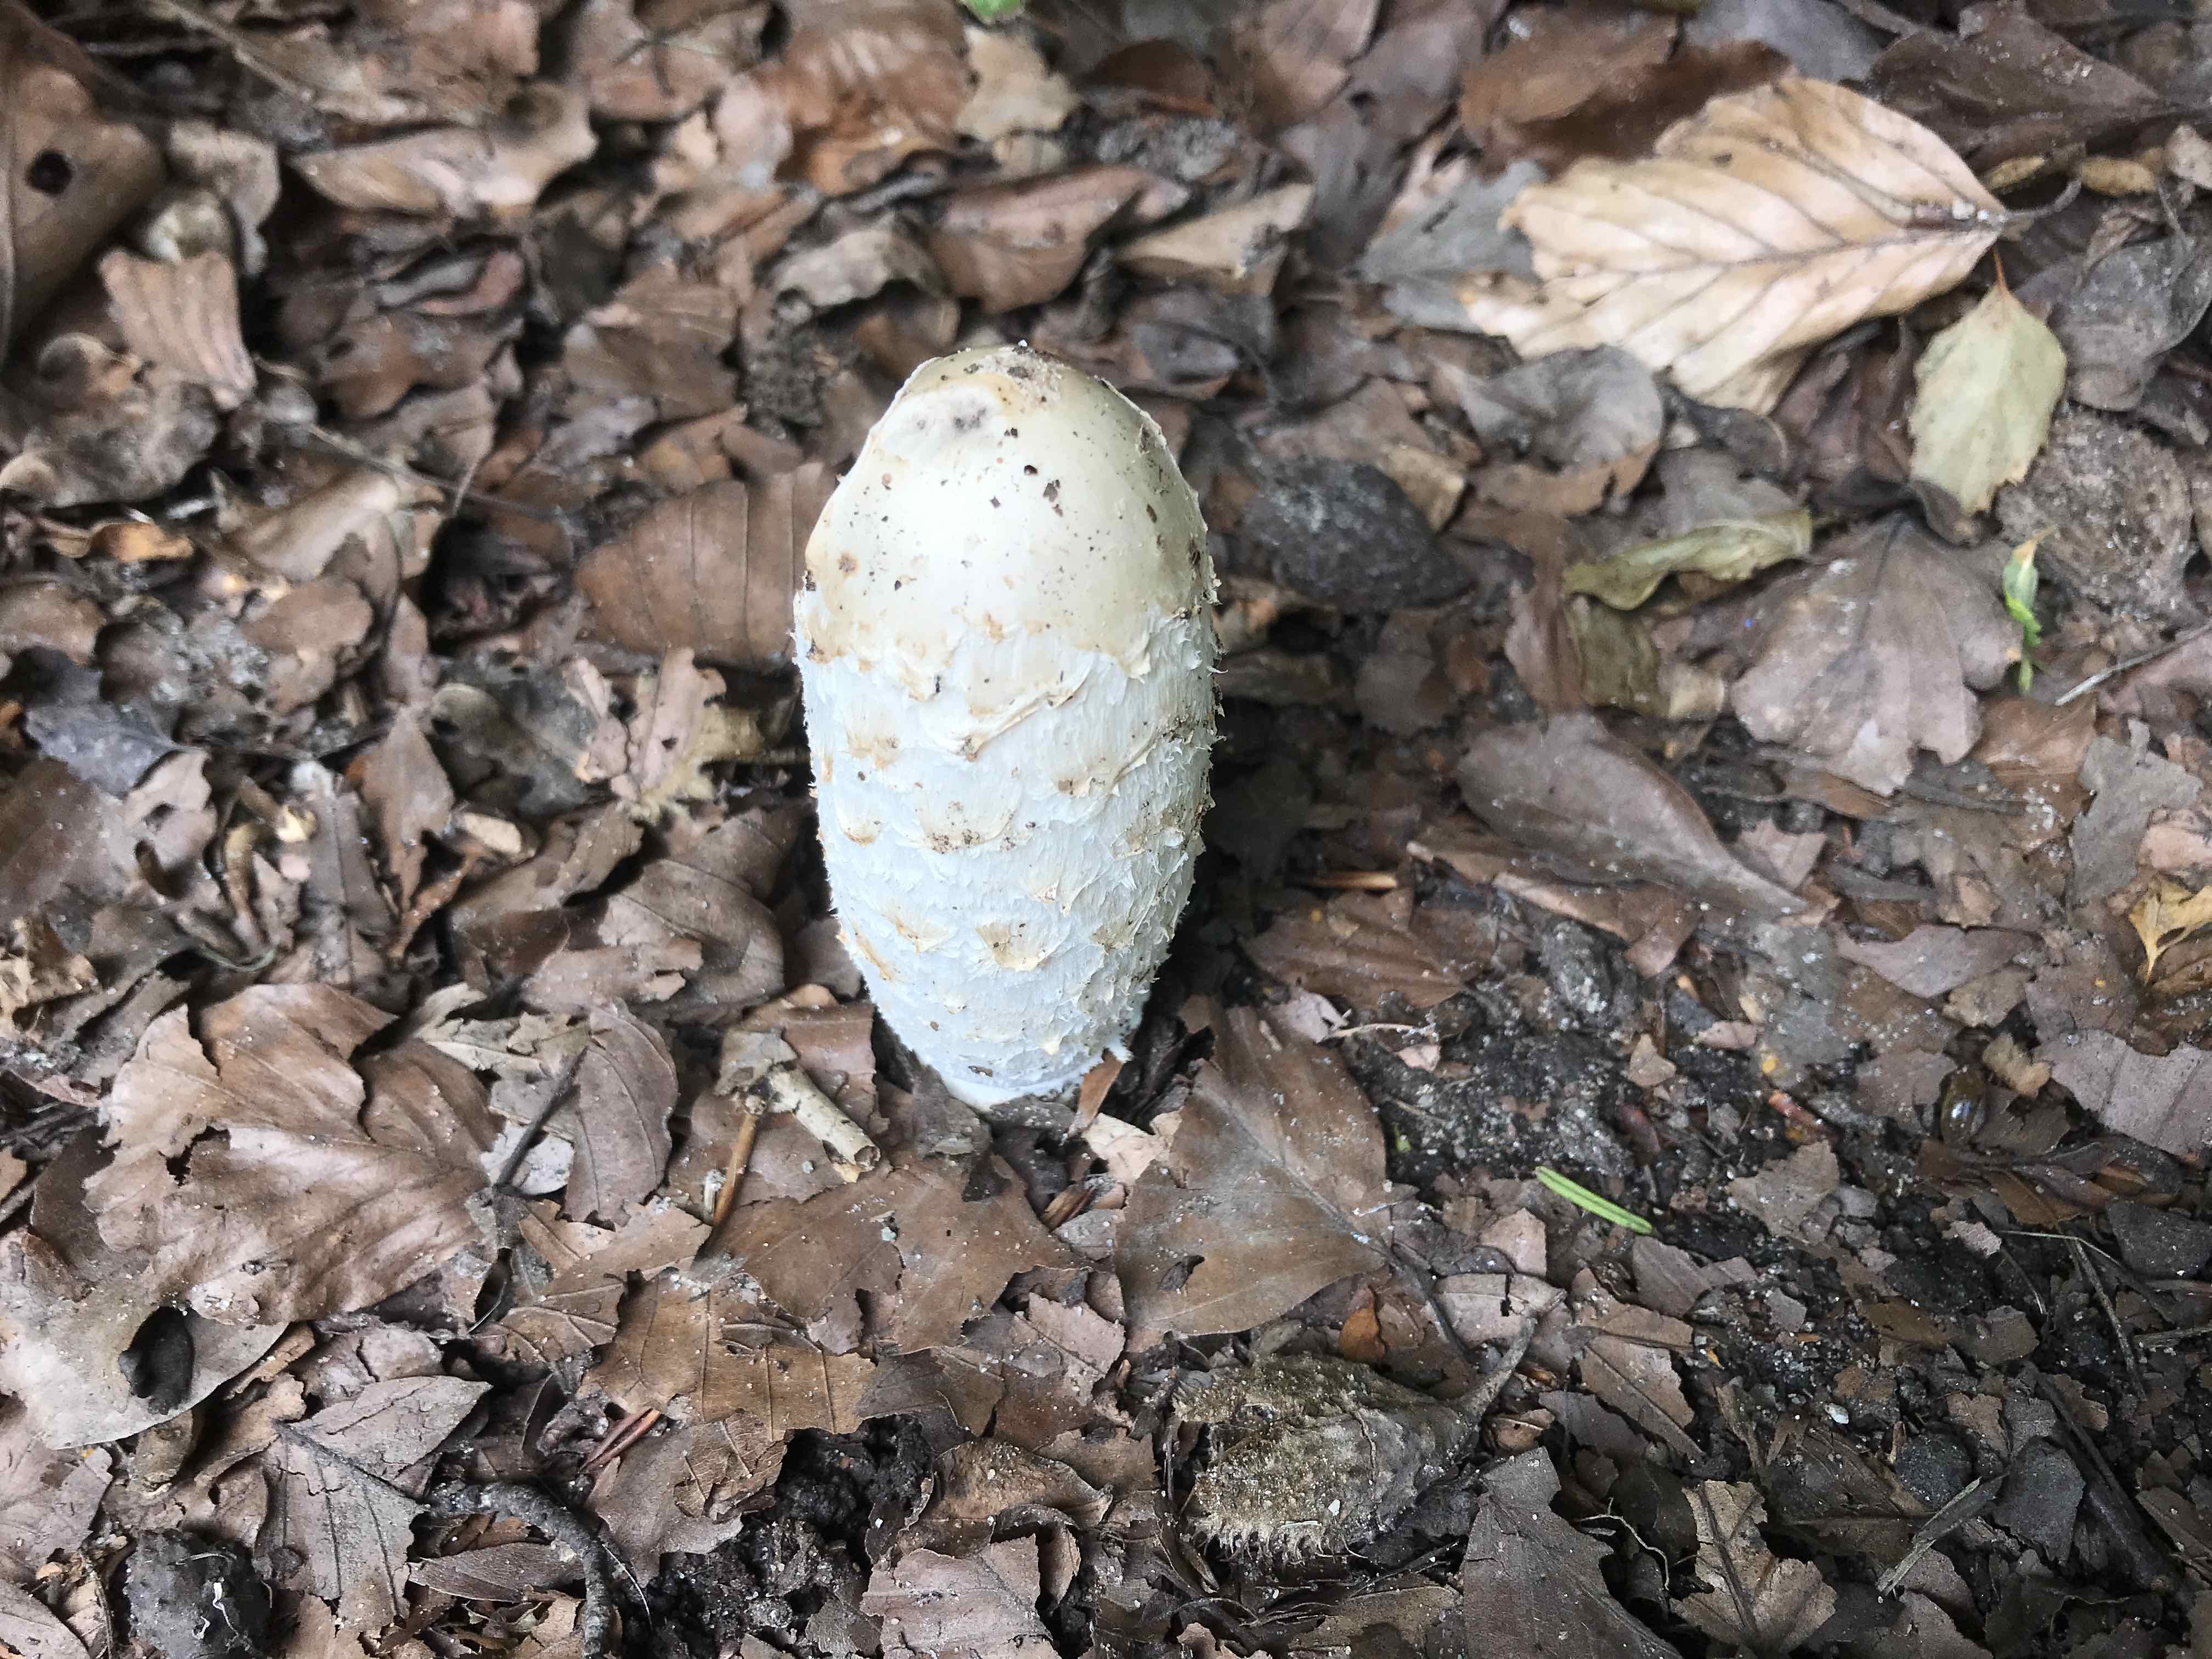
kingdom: Fungi
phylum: Basidiomycota
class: Agaricomycetes
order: Agaricales
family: Agaricaceae
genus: Coprinus
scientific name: Coprinus comatus
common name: stor parykhat
